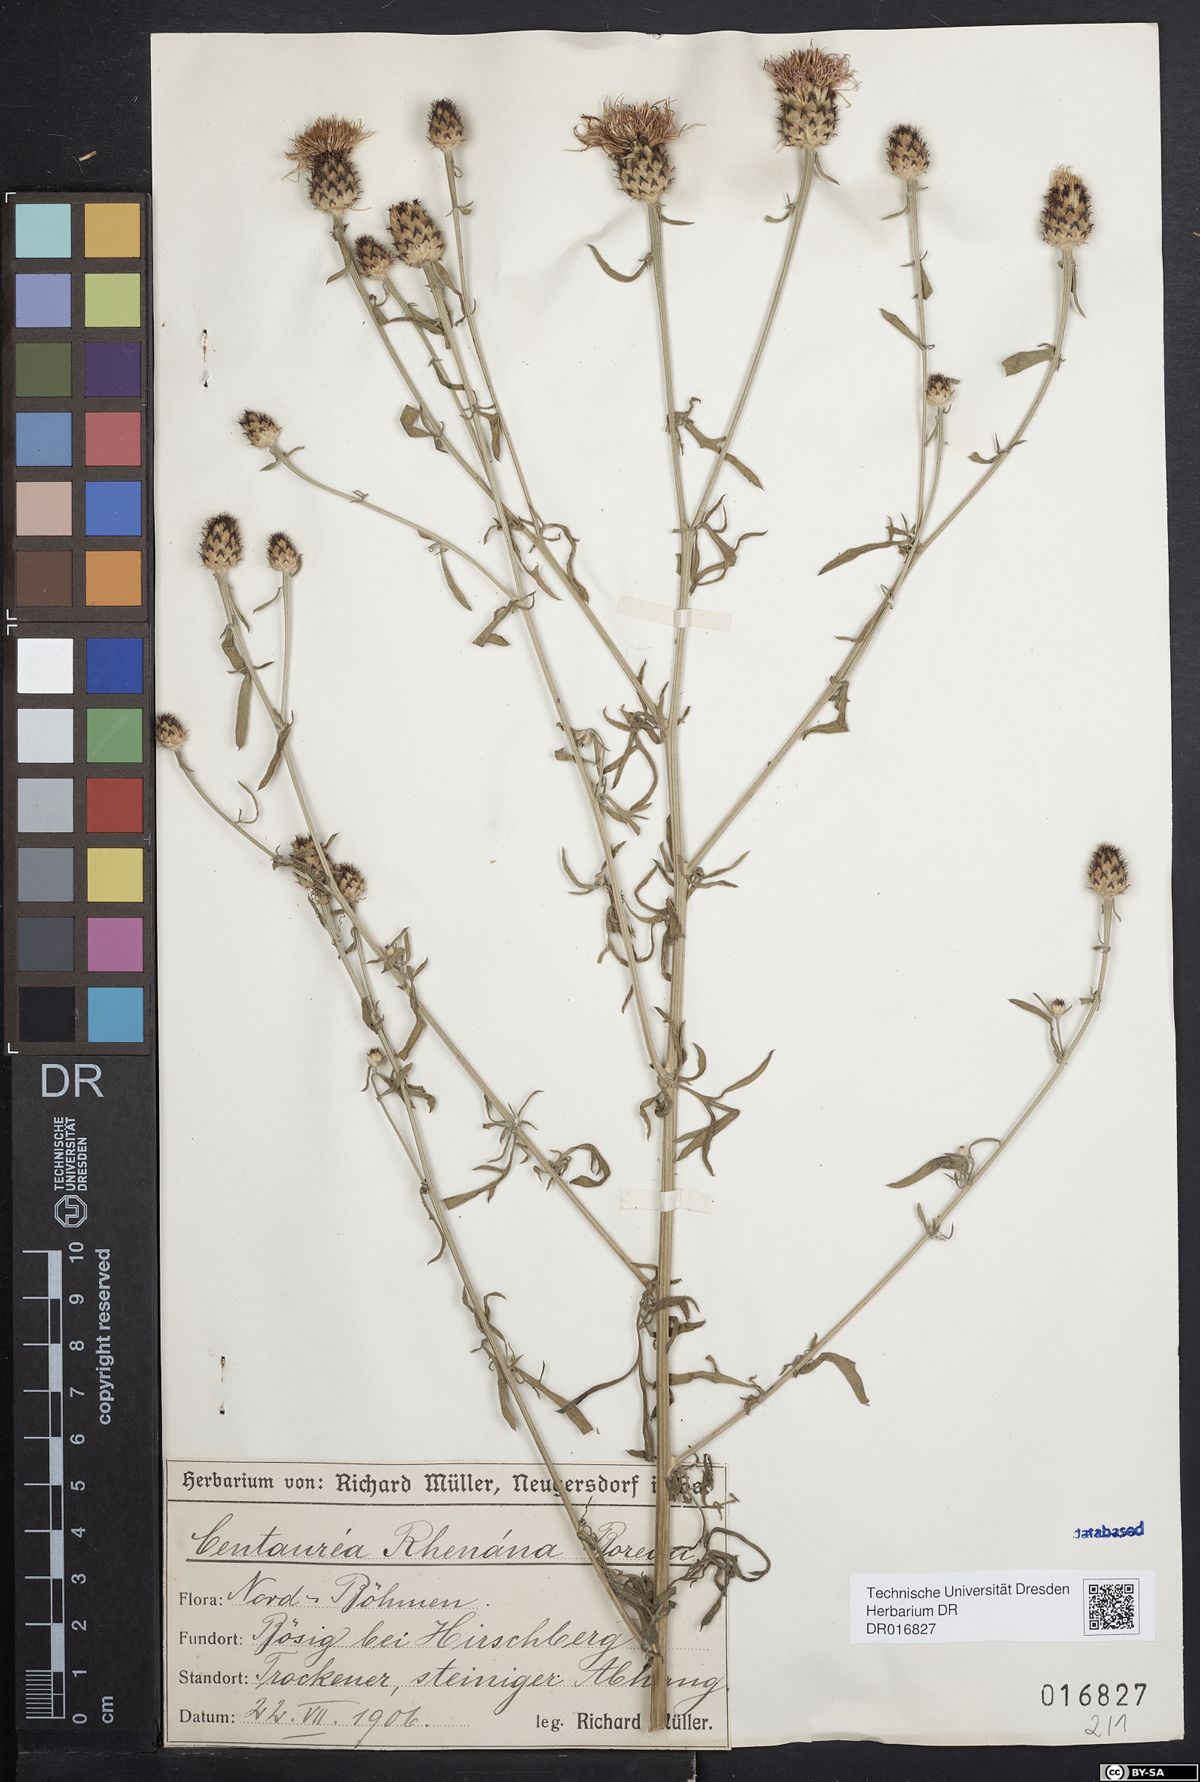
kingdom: Plantae
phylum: Tracheophyta
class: Magnoliopsida
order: Asterales
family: Asteraceae
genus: Centaurea
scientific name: Centaurea stoebe
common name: Spotted knapweed
